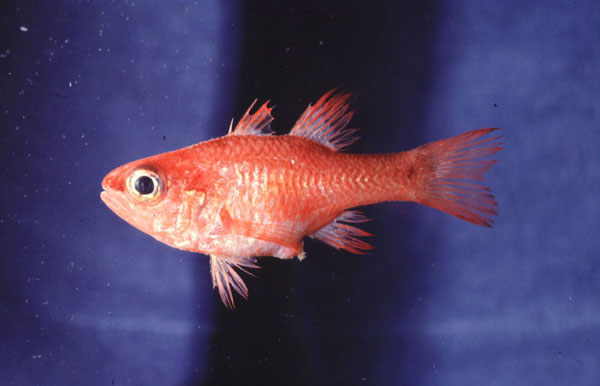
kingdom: Animalia
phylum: Chordata
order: Perciformes
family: Apogonidae
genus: Apogon
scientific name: Apogon imberbis
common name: Cardinal fish
